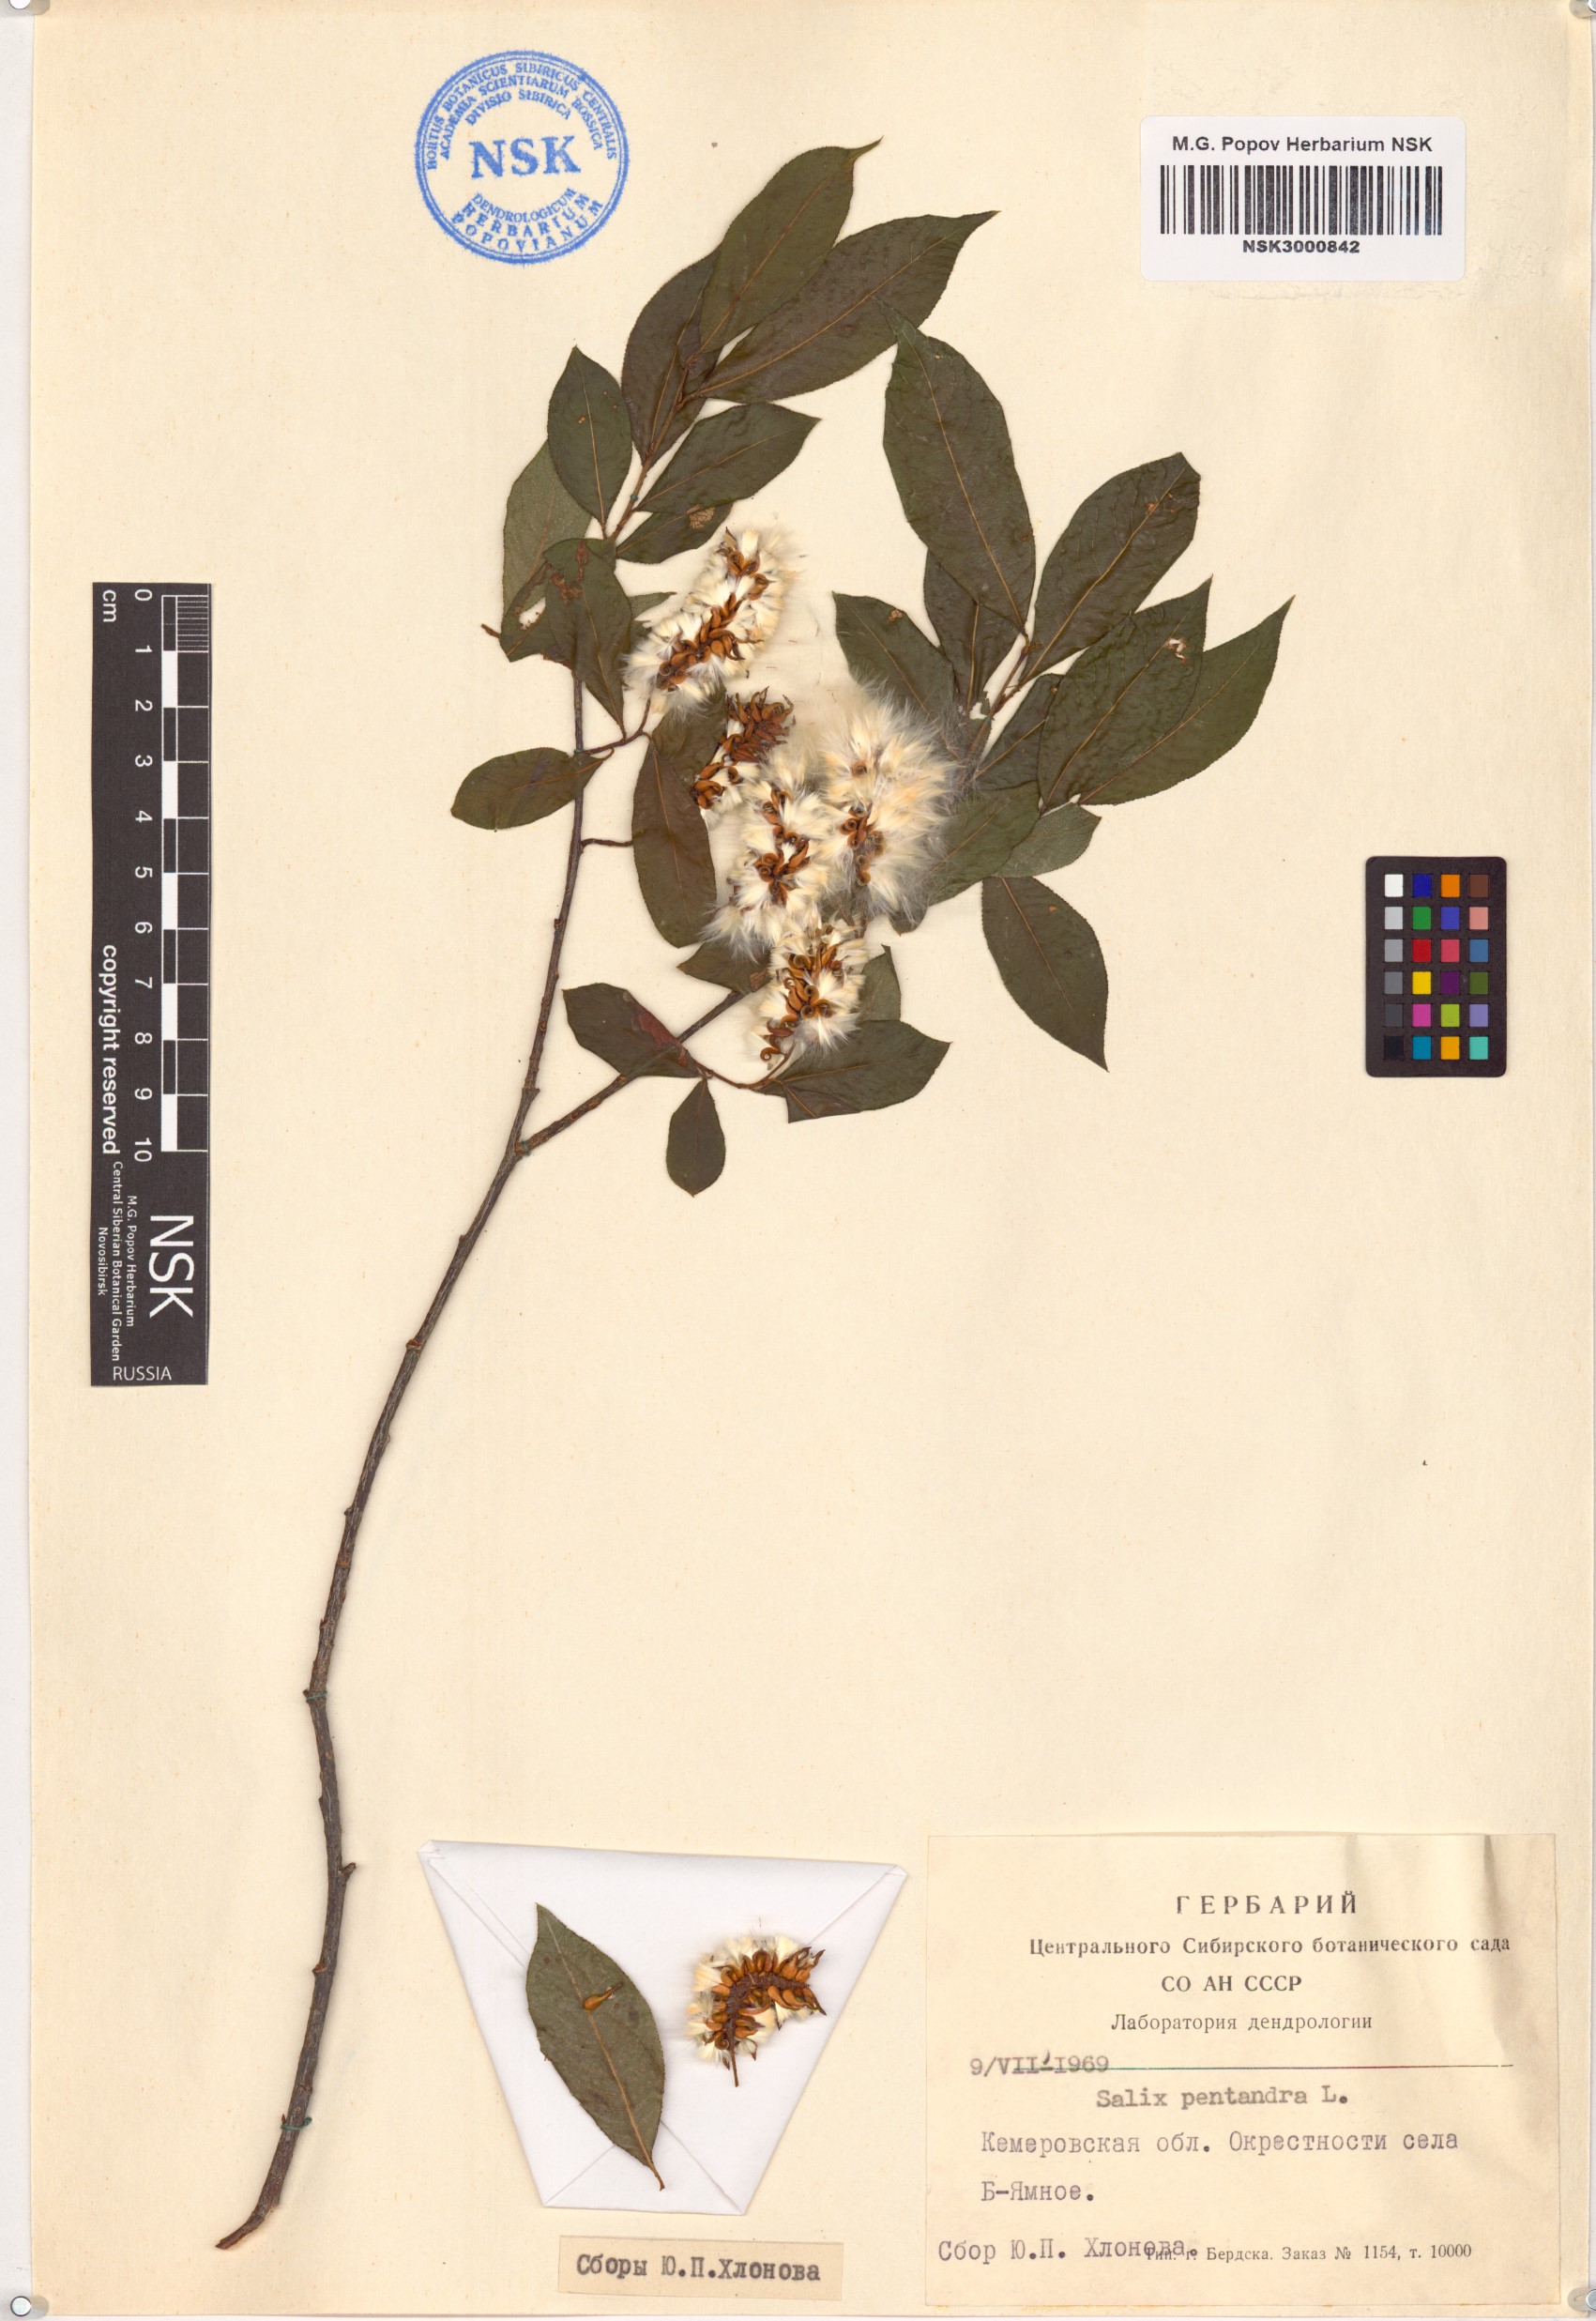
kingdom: Plantae
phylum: Tracheophyta
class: Magnoliopsida
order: Malpighiales
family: Salicaceae
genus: Salix
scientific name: Salix pentandra
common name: Bay willow
